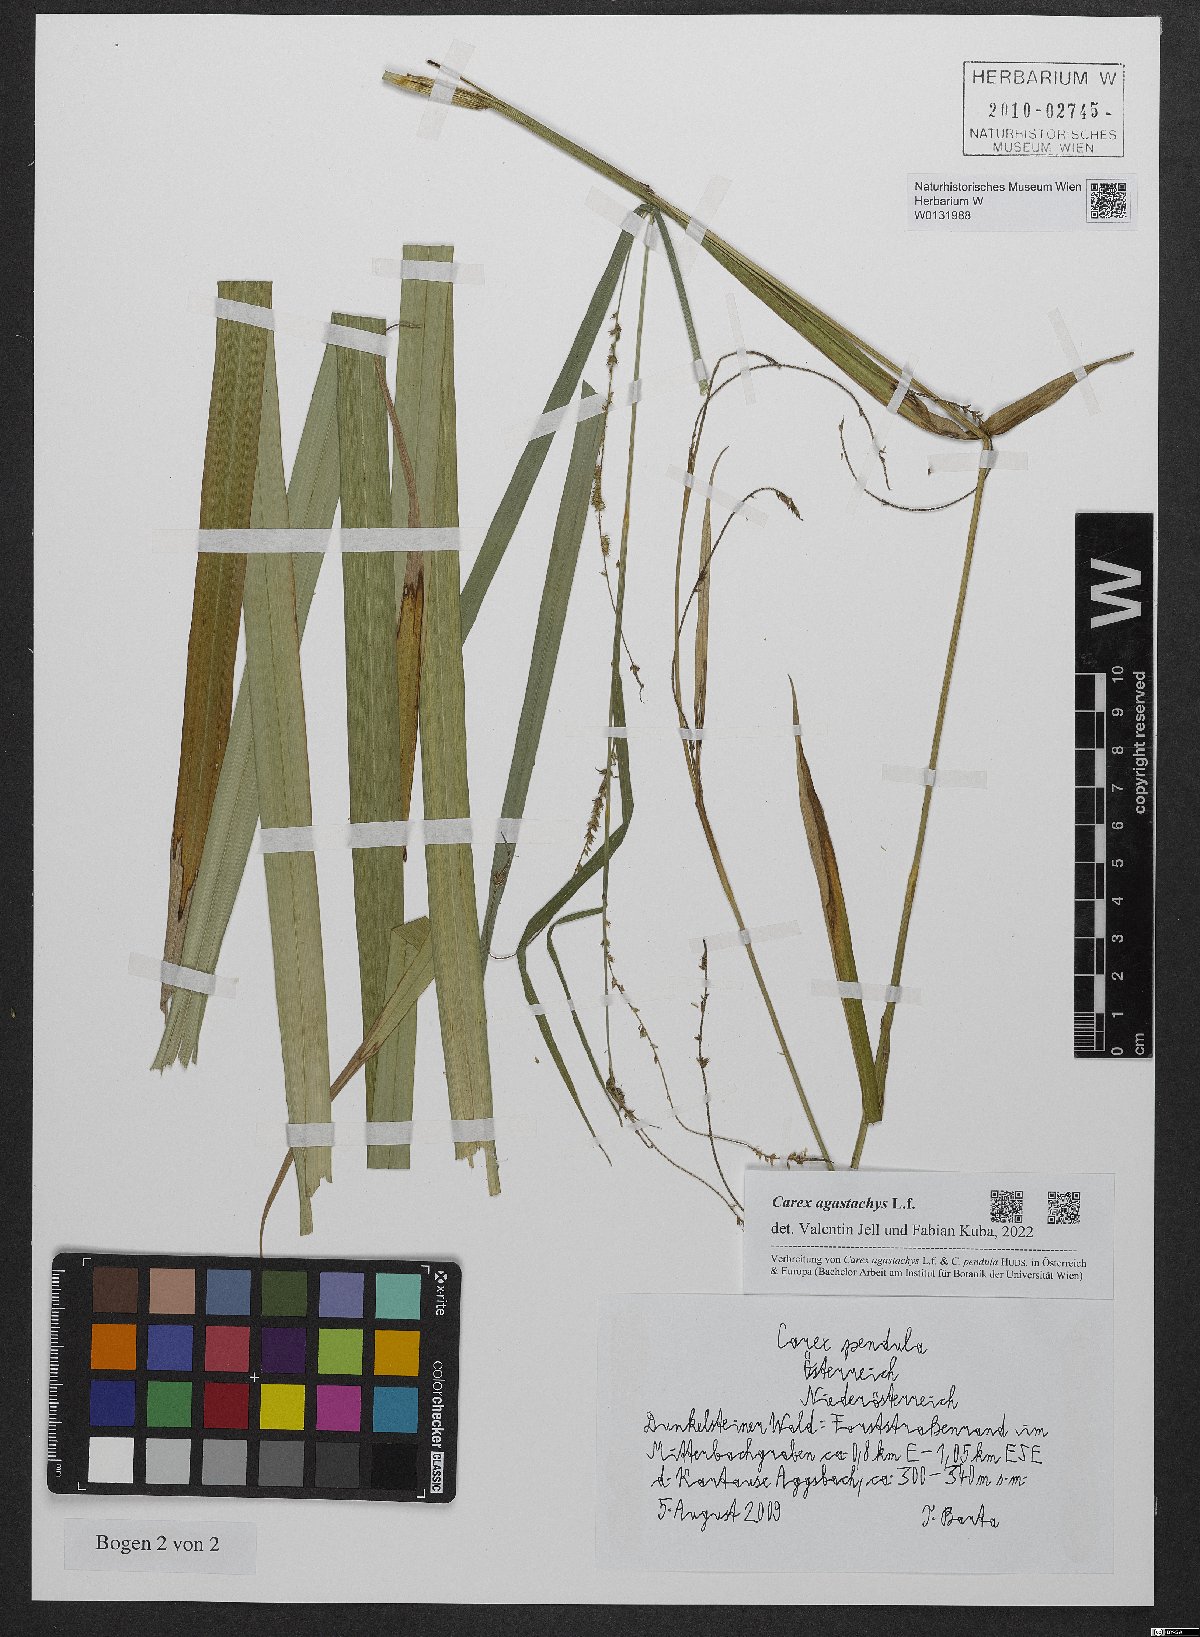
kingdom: Plantae
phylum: Tracheophyta
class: Liliopsida
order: Poales
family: Cyperaceae
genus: Carex
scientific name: Carex agastachys
